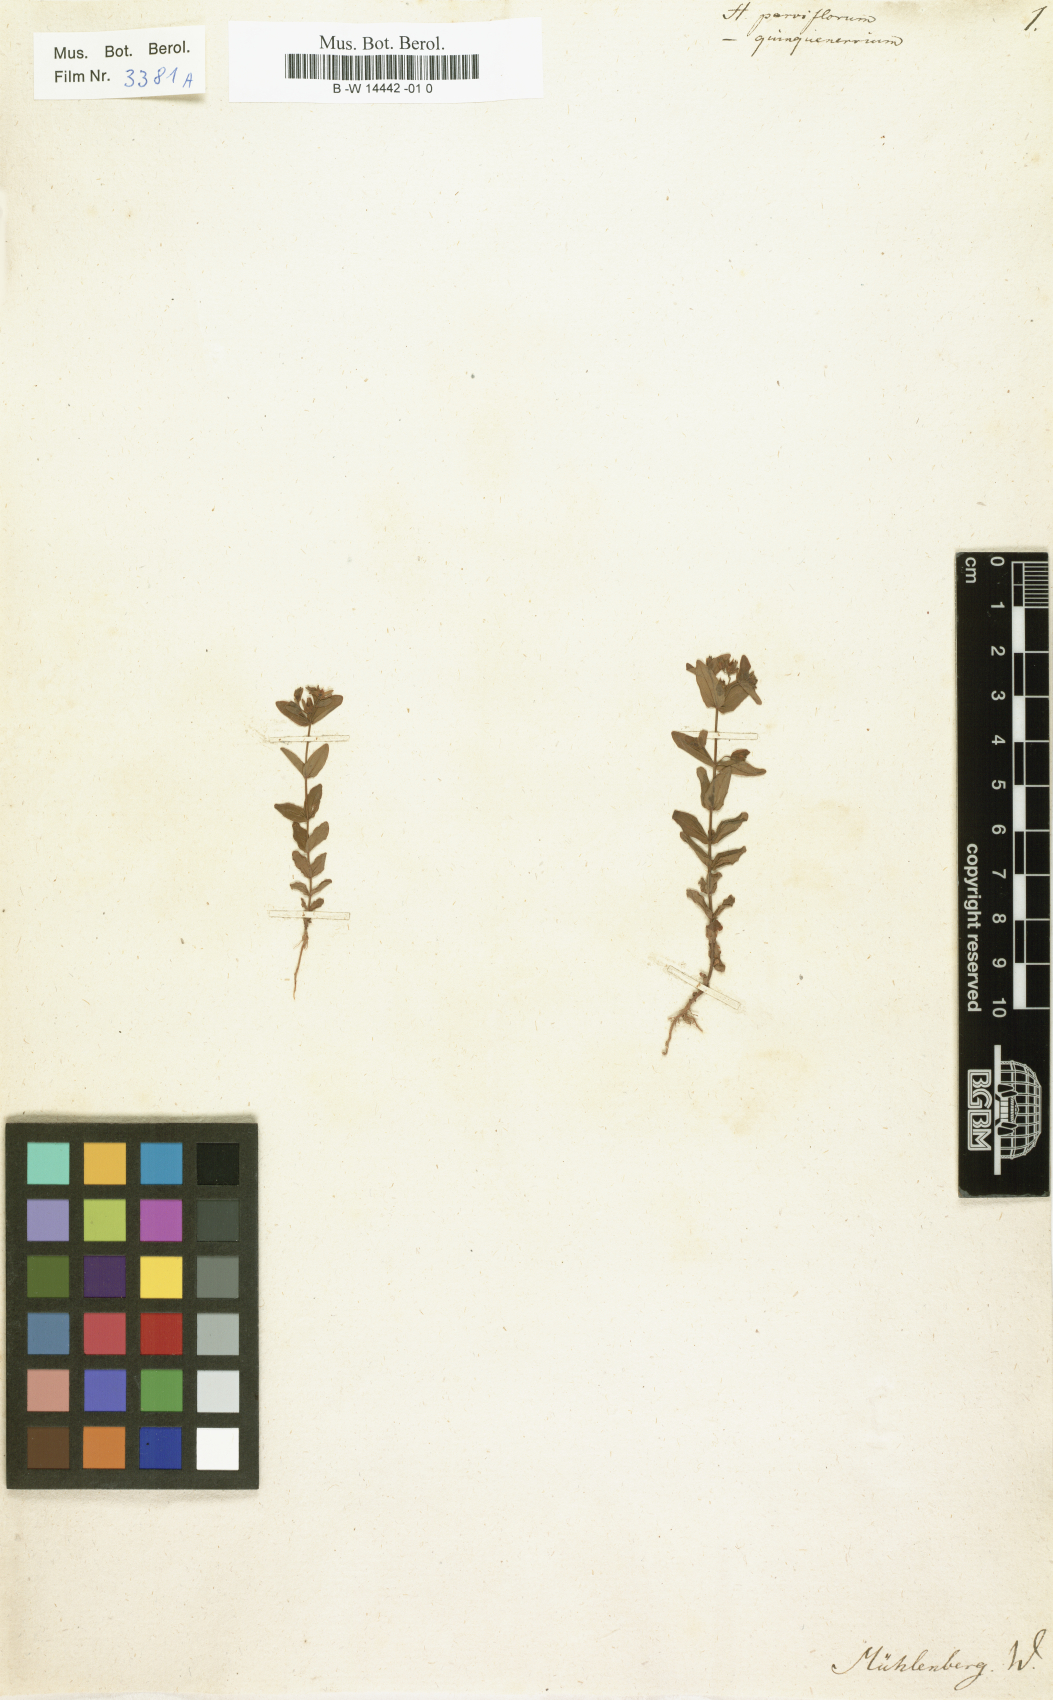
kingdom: Plantae
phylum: Tracheophyta
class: Magnoliopsida
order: Malpighiales
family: Hypericaceae
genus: Hypericum
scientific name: Hypericum
